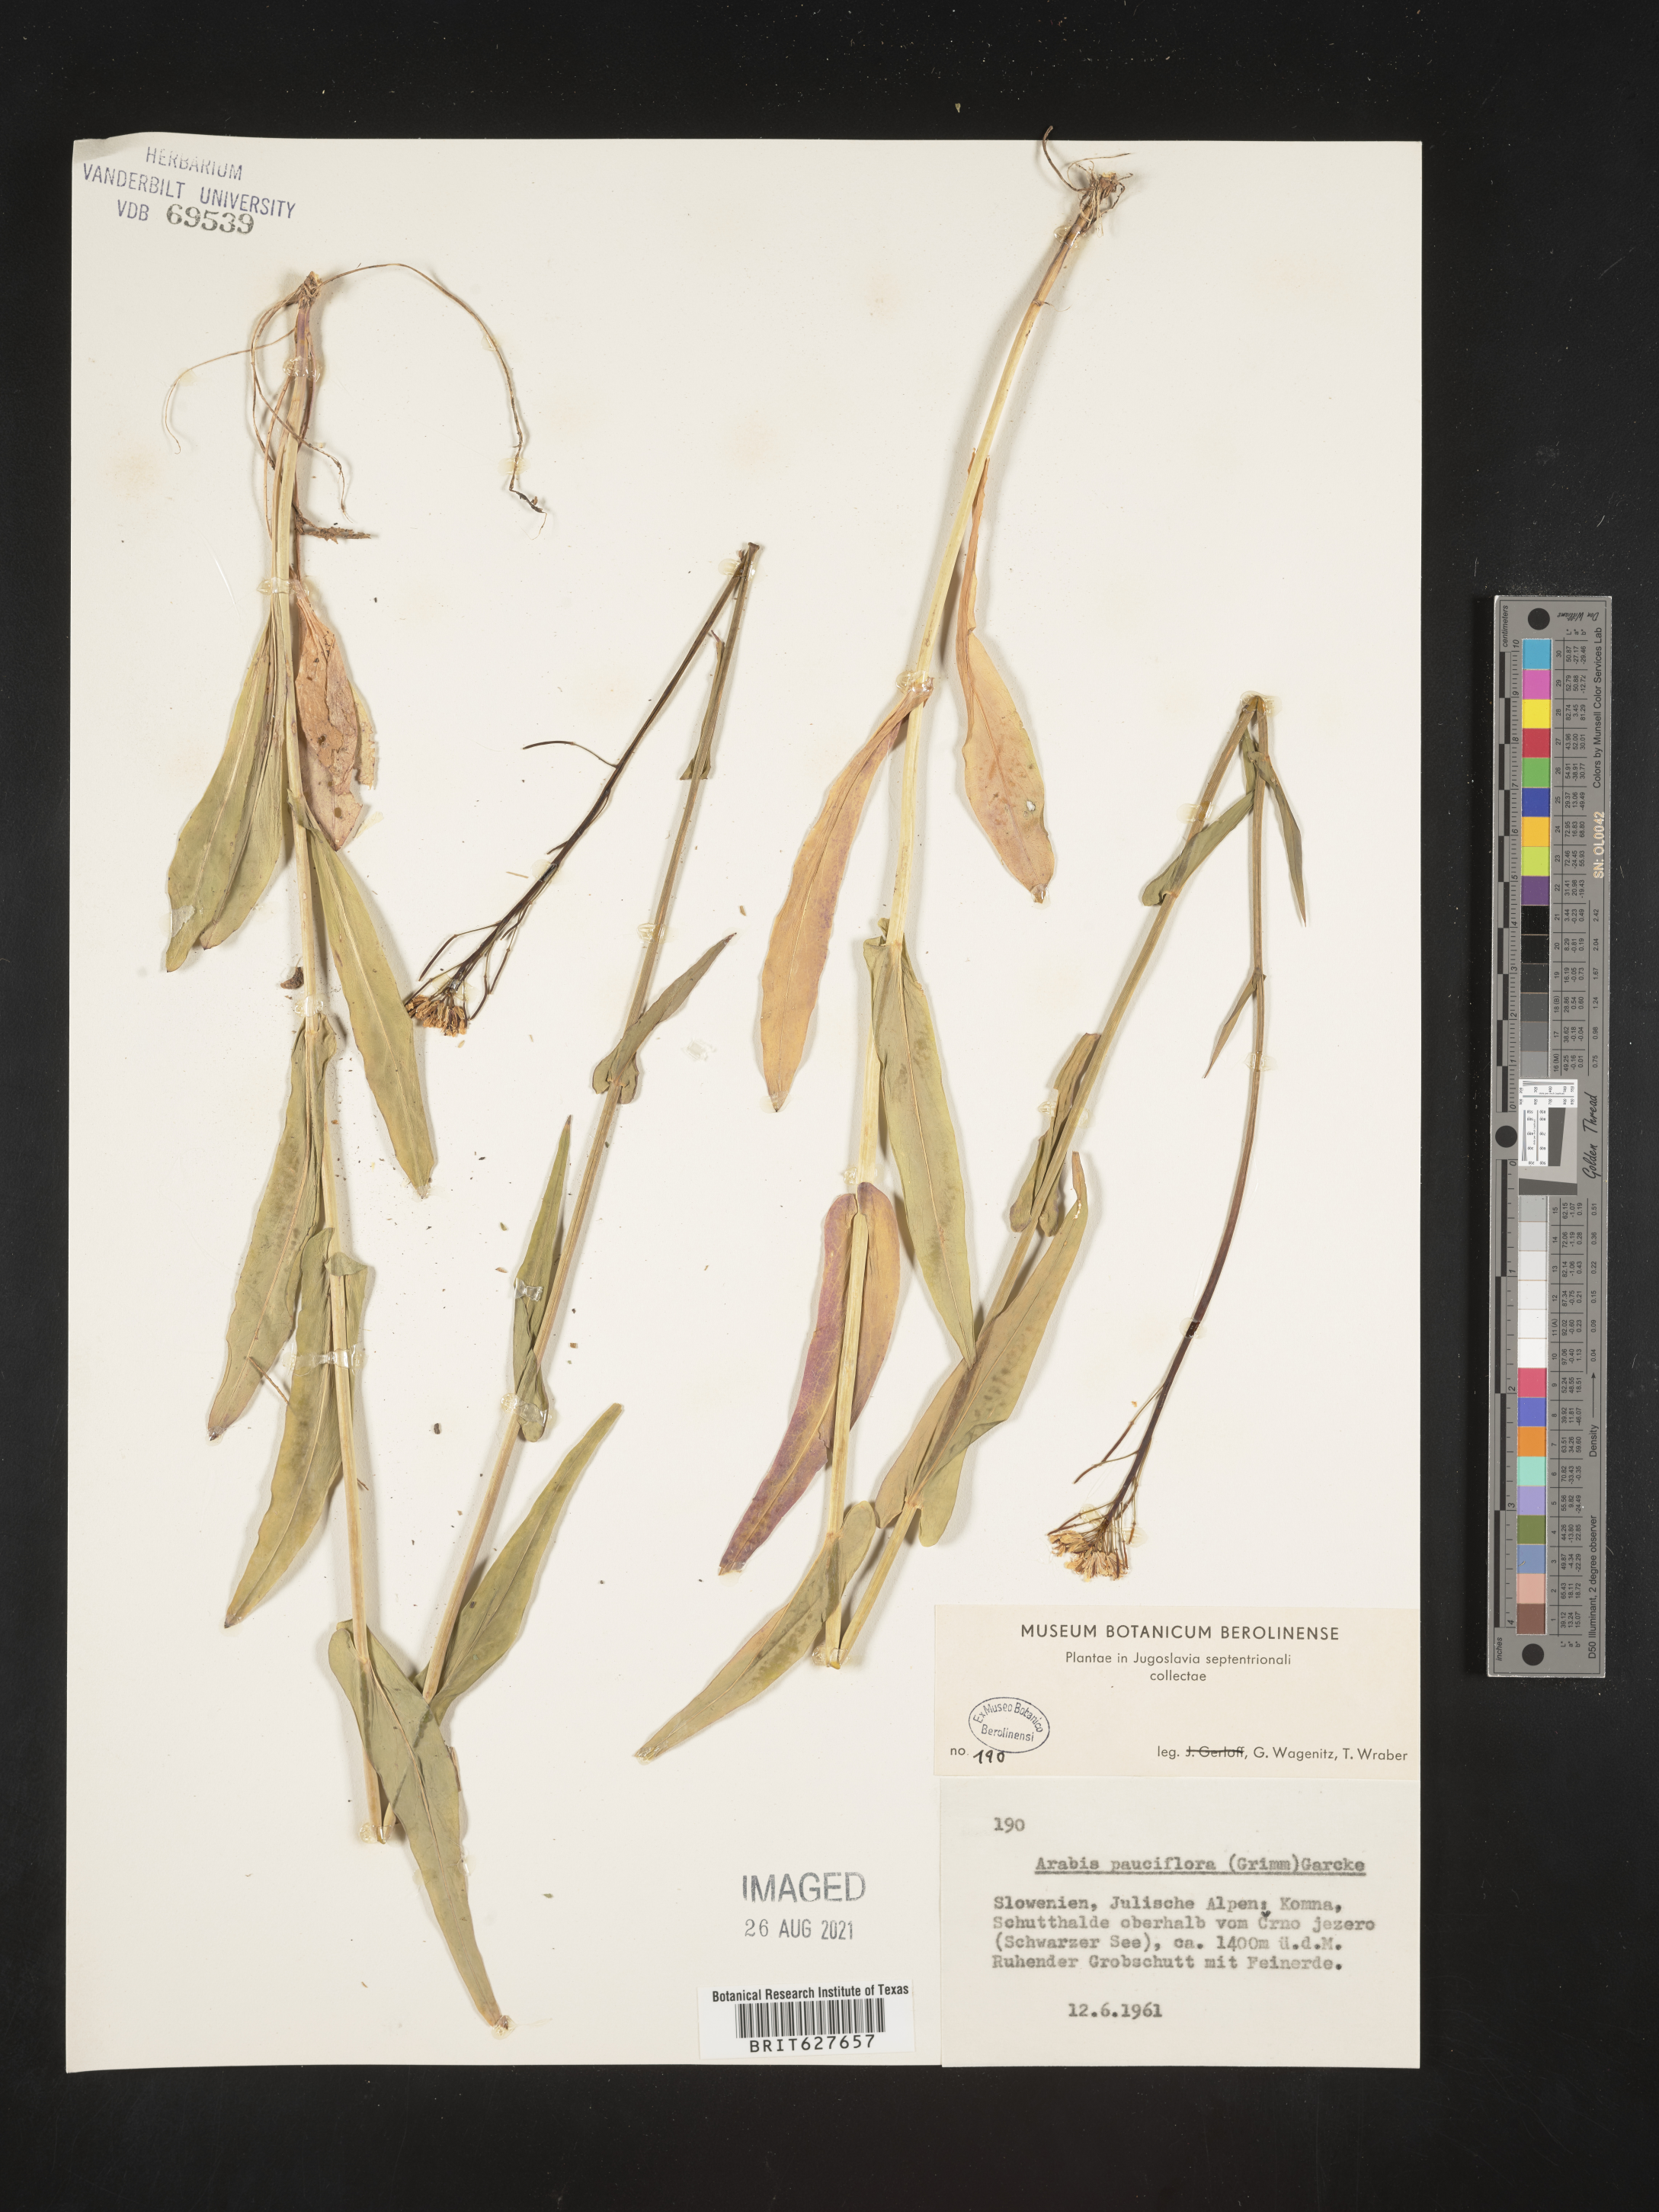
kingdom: Plantae
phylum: Tracheophyta
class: Magnoliopsida
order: Brassicales
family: Brassicaceae
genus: Fourraea
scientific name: Fourraea alpina
